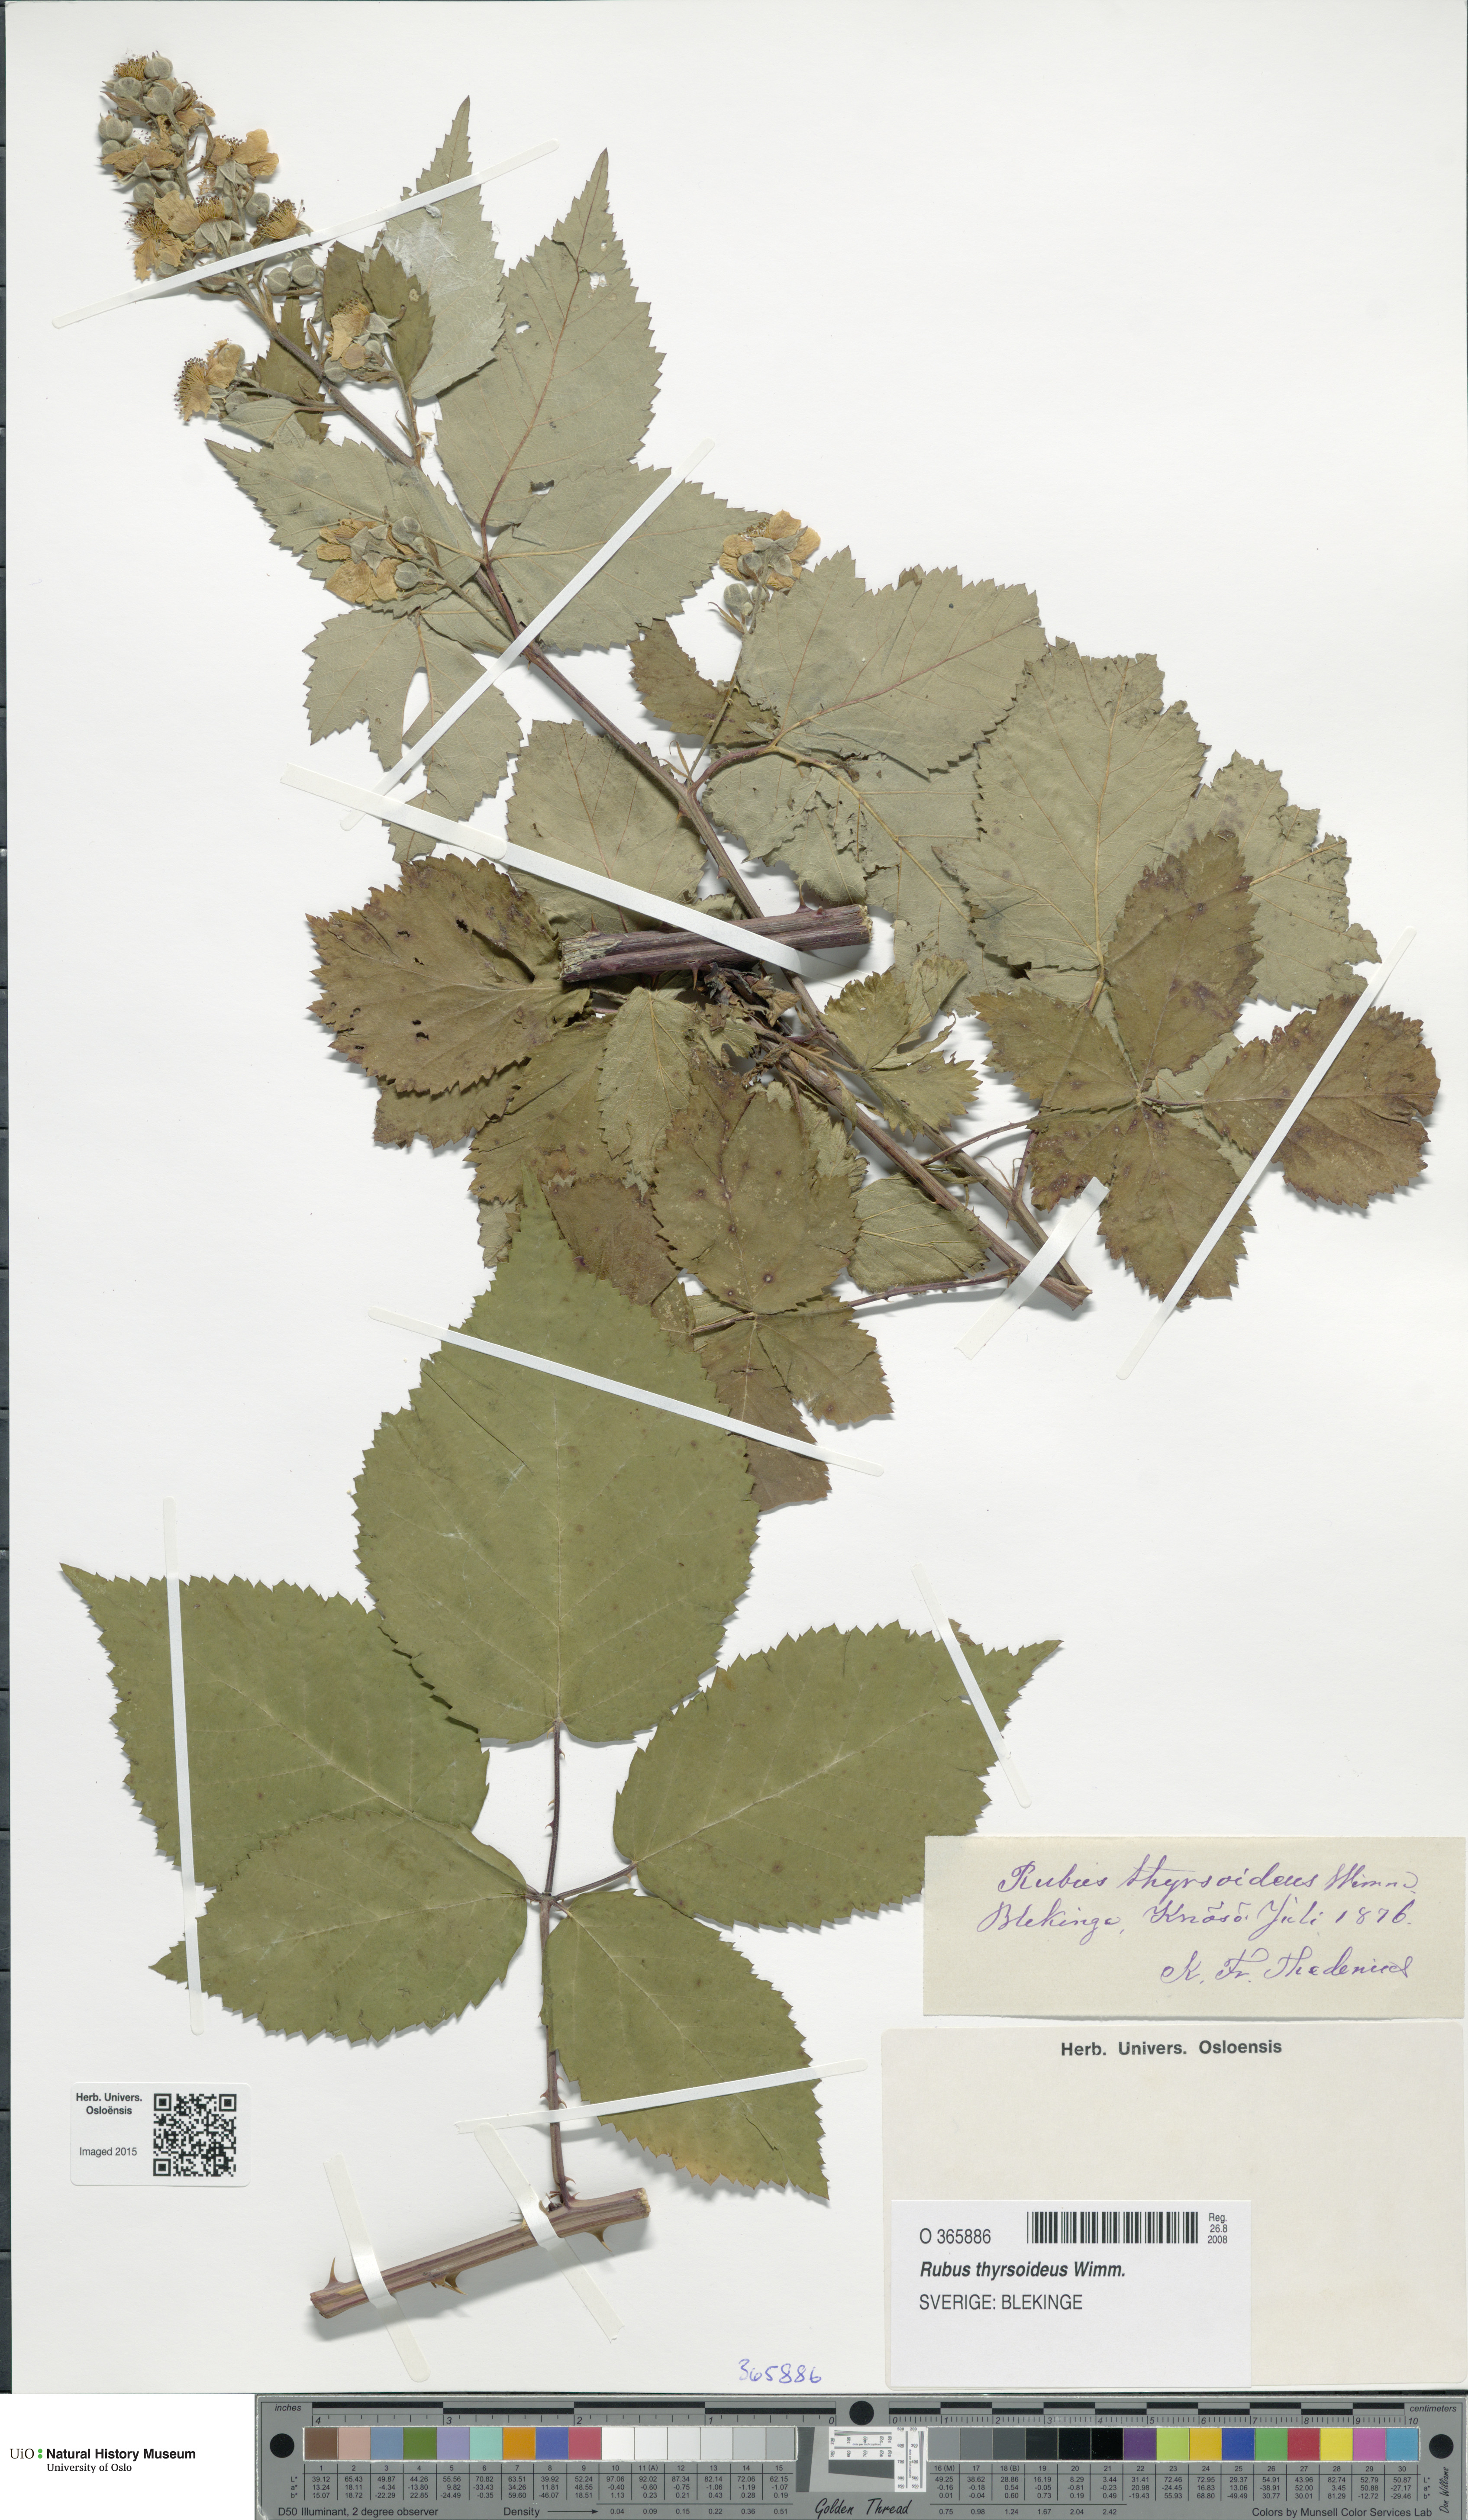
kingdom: Plantae
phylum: Tracheophyta
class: Magnoliopsida
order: Rosales
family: Rosaceae
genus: Rubus
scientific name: Rubus
